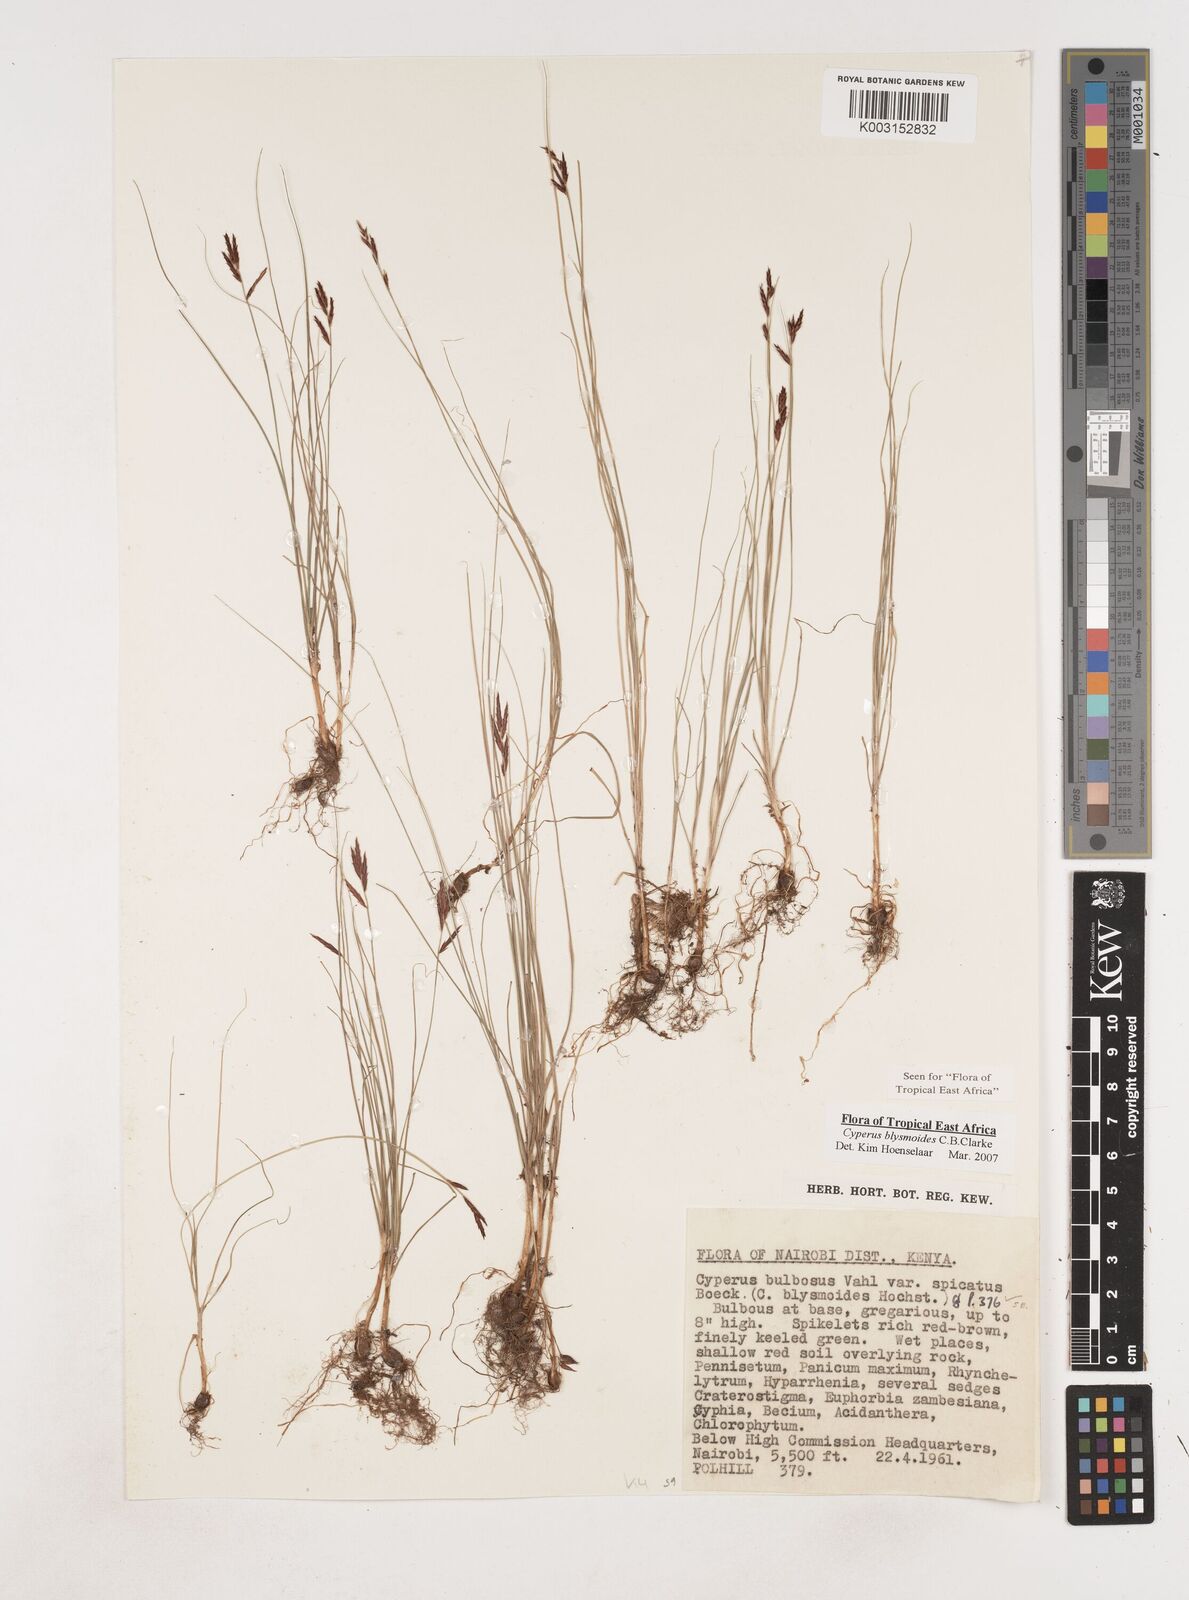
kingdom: Plantae
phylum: Tracheophyta
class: Liliopsida
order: Poales
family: Cyperaceae
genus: Cyperus
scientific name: Cyperus blysmoides
